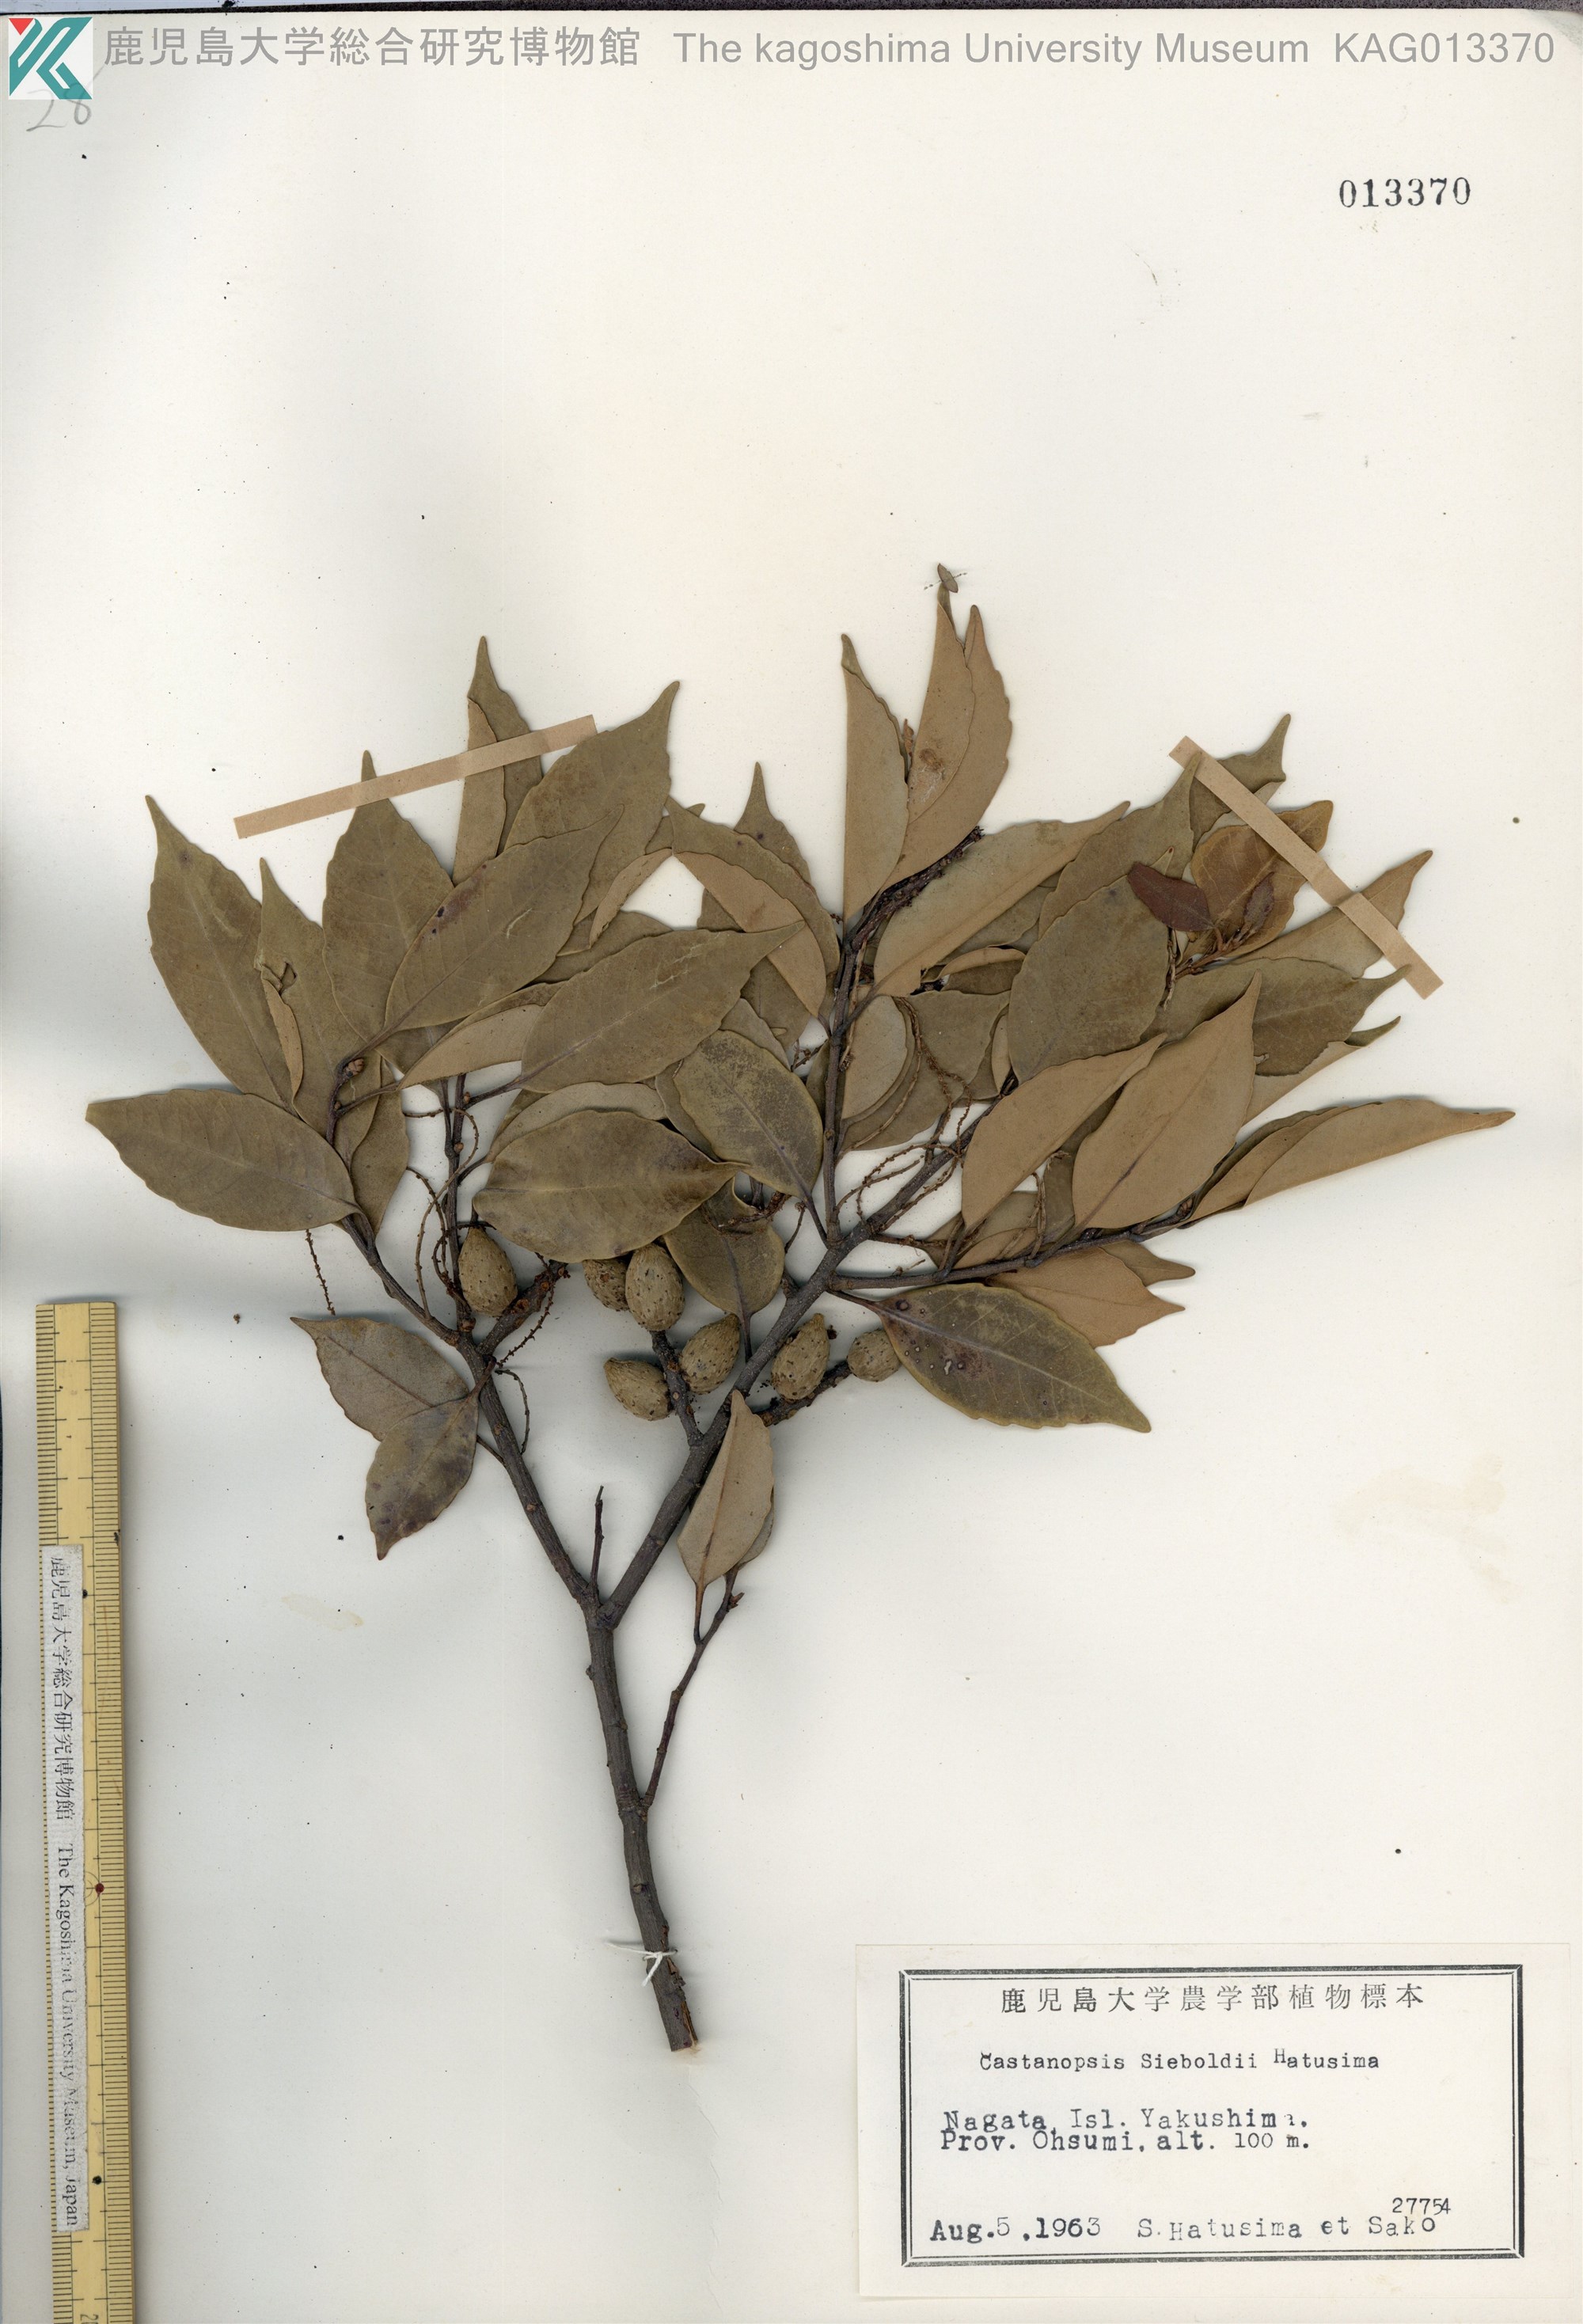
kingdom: Plantae
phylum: Tracheophyta
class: Magnoliopsida
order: Fagales
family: Fagaceae
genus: Castanopsis
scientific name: Castanopsis sieboldii
